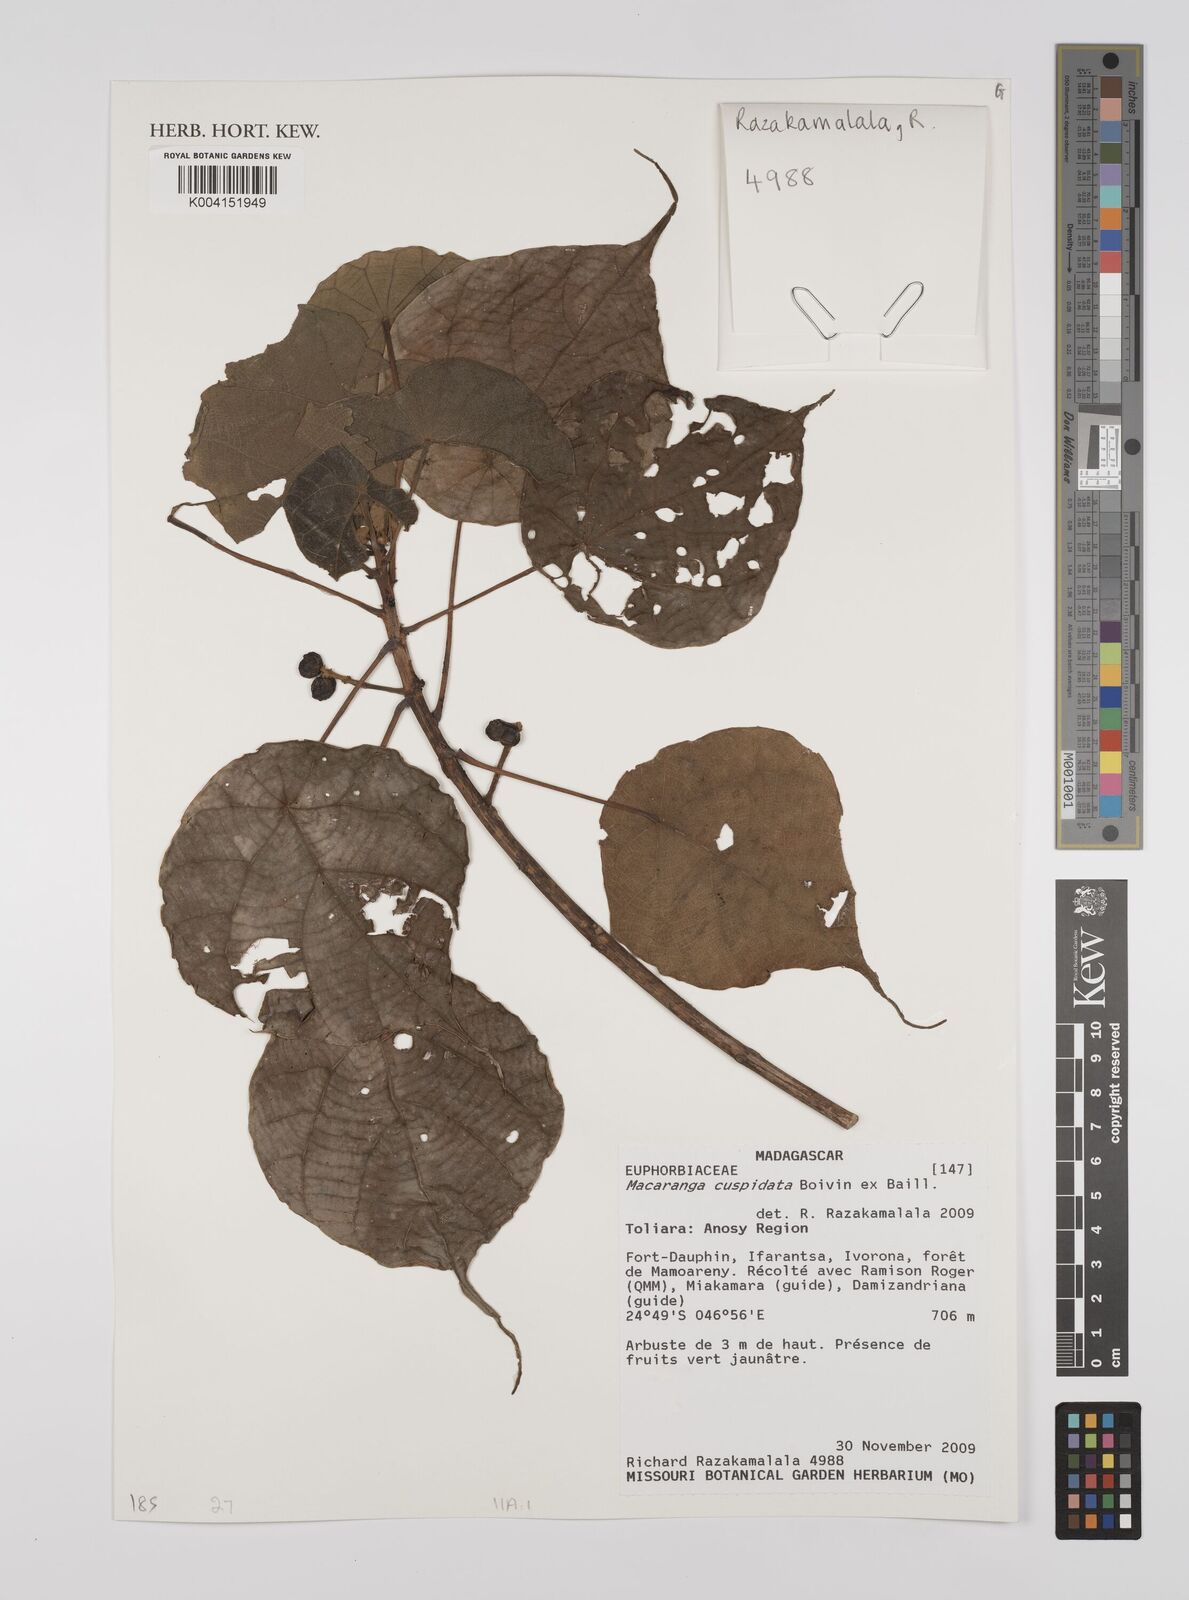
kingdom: Plantae
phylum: Tracheophyta
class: Magnoliopsida
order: Malpighiales
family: Euphorbiaceae
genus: Macaranga
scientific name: Macaranga cuspidata
